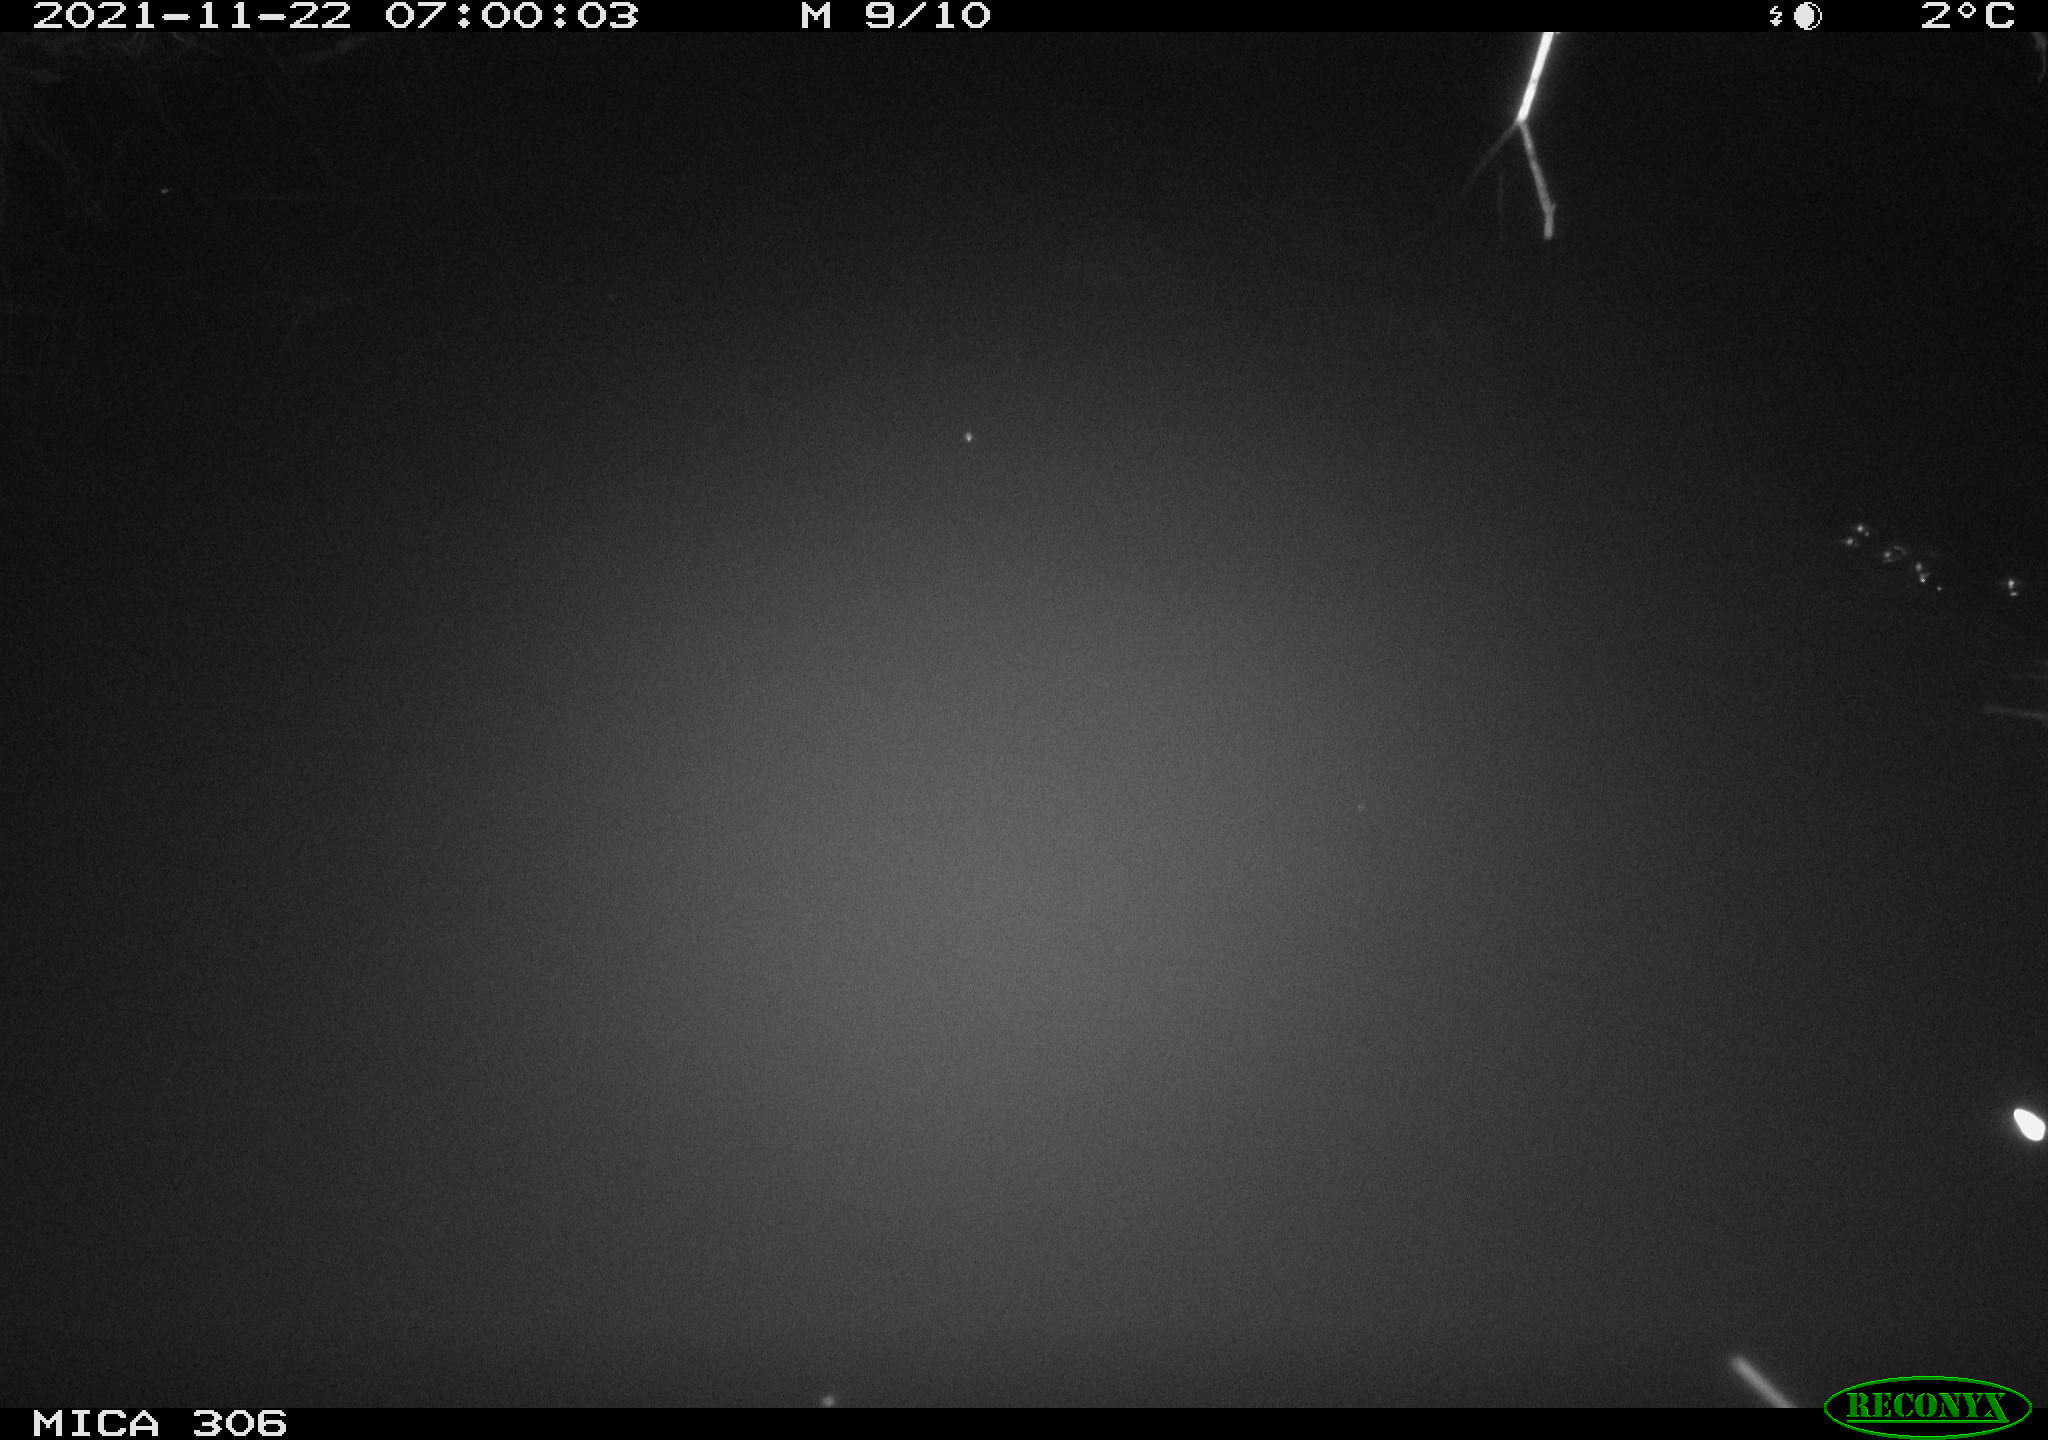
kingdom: Animalia
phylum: Chordata
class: Mammalia
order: Rodentia
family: Muridae
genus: Rattus
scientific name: Rattus norvegicus
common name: Brown rat
